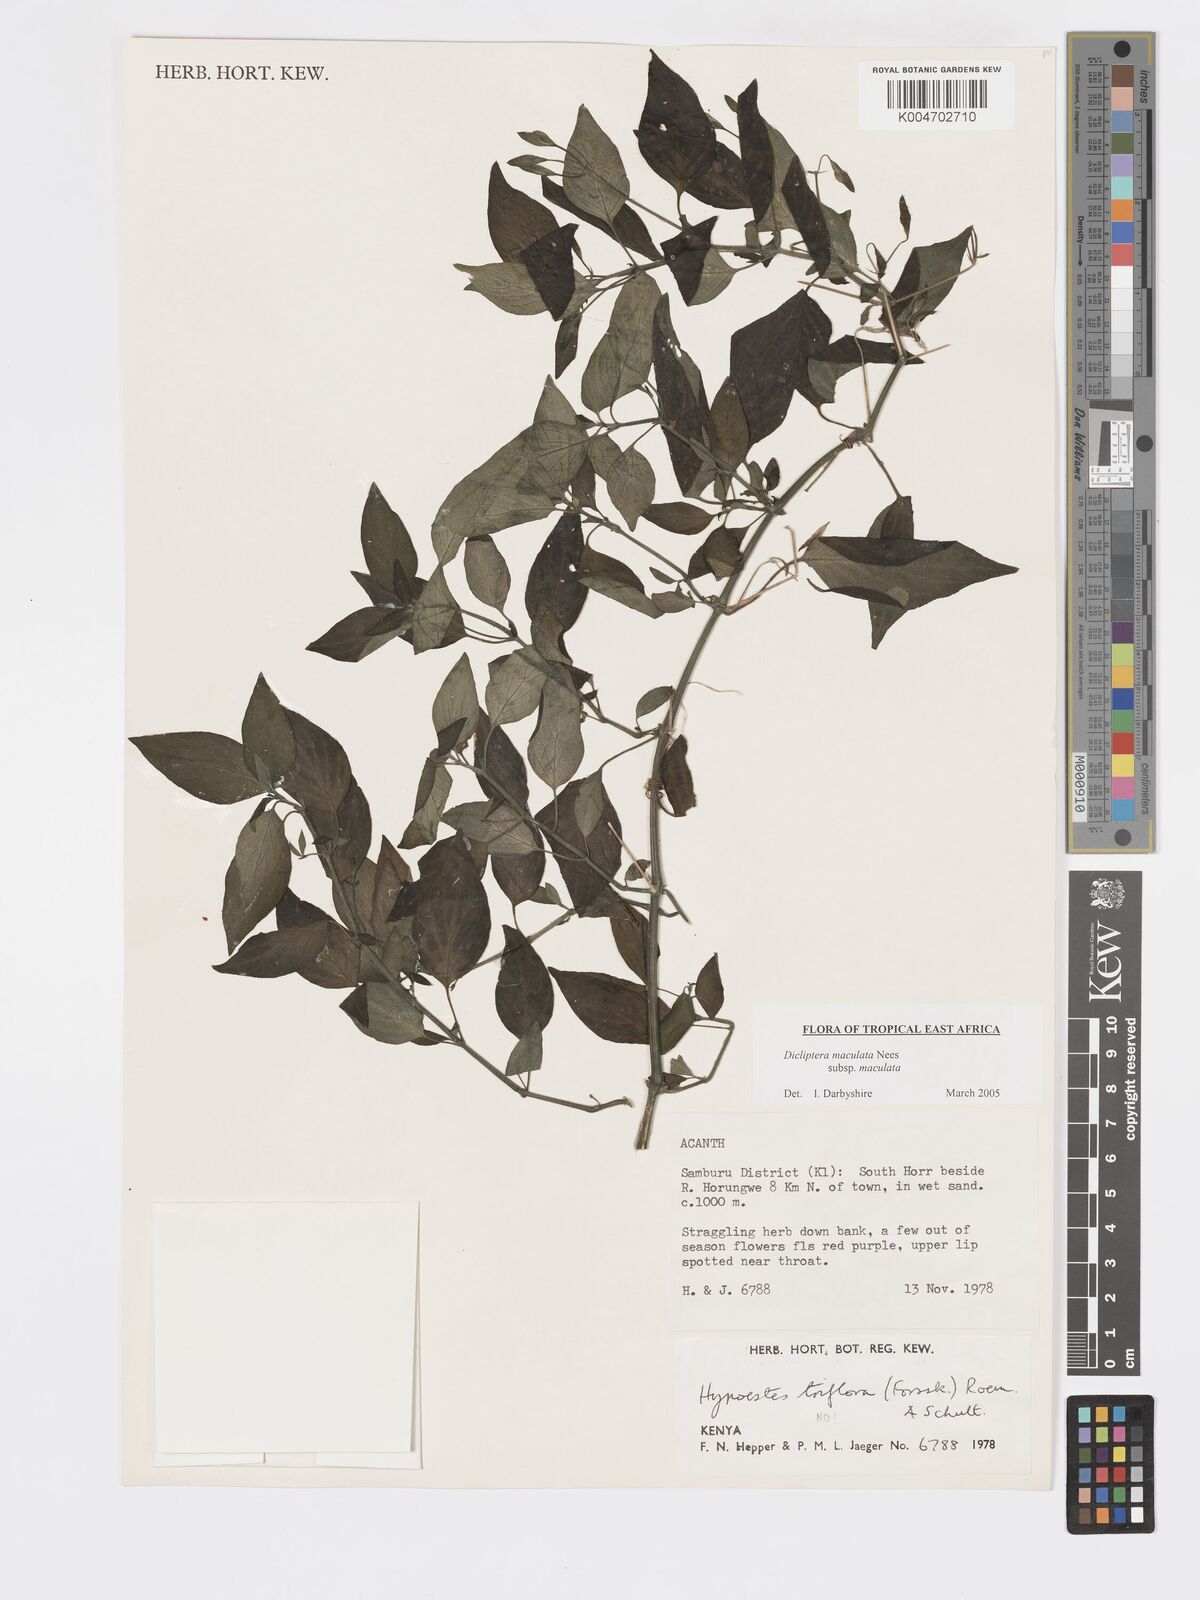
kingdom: Plantae
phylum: Tracheophyta
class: Magnoliopsida
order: Lamiales
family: Acanthaceae
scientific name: Acanthaceae
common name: Acanthaceae
